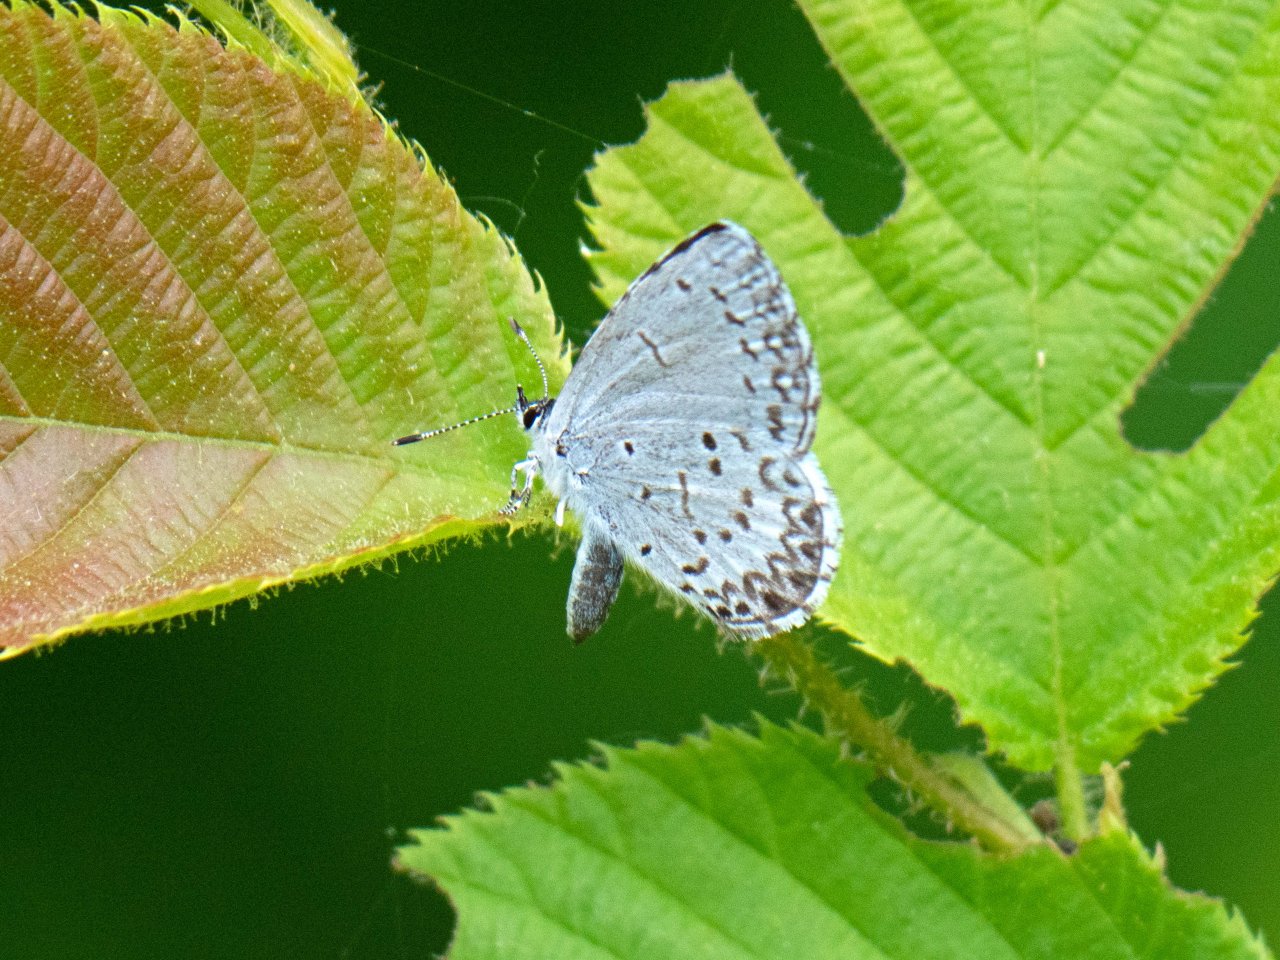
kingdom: Animalia
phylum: Arthropoda
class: Insecta
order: Lepidoptera
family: Lycaenidae
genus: Celastrina
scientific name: Celastrina lucia
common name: Northern Spring Azure
